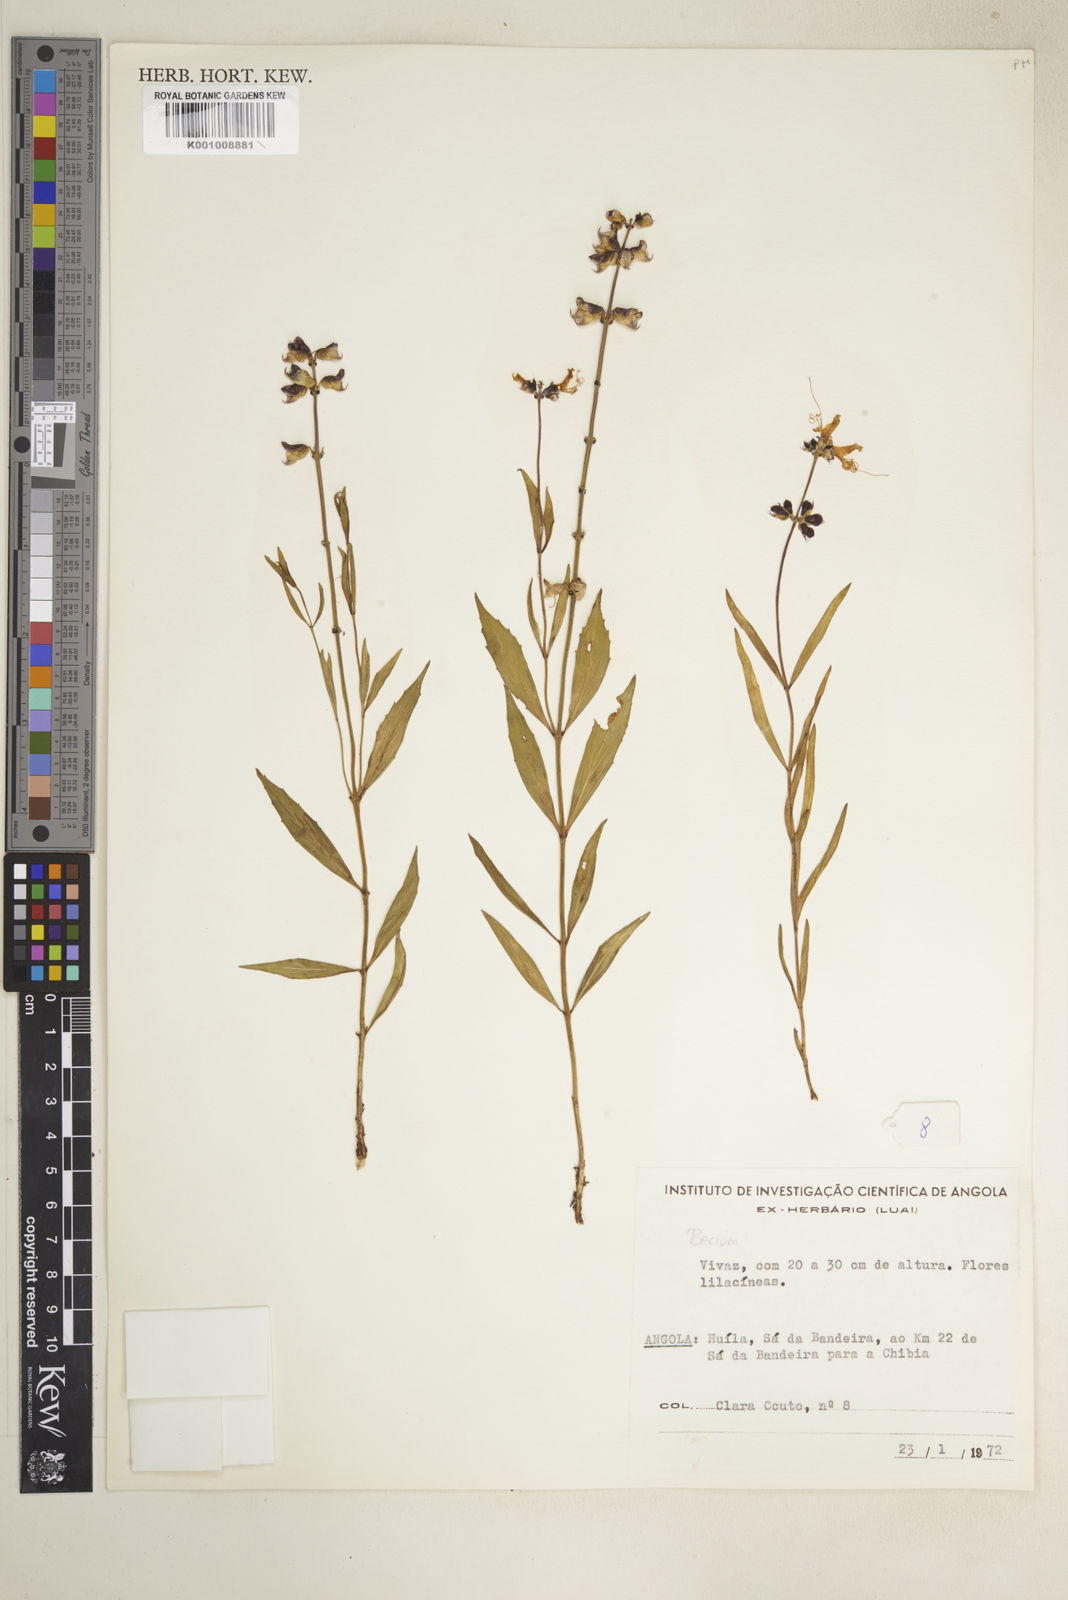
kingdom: Plantae
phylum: Tracheophyta
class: Magnoliopsida
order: Lamiales
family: Lamiaceae
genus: Ocimum
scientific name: Ocimum obovatum
